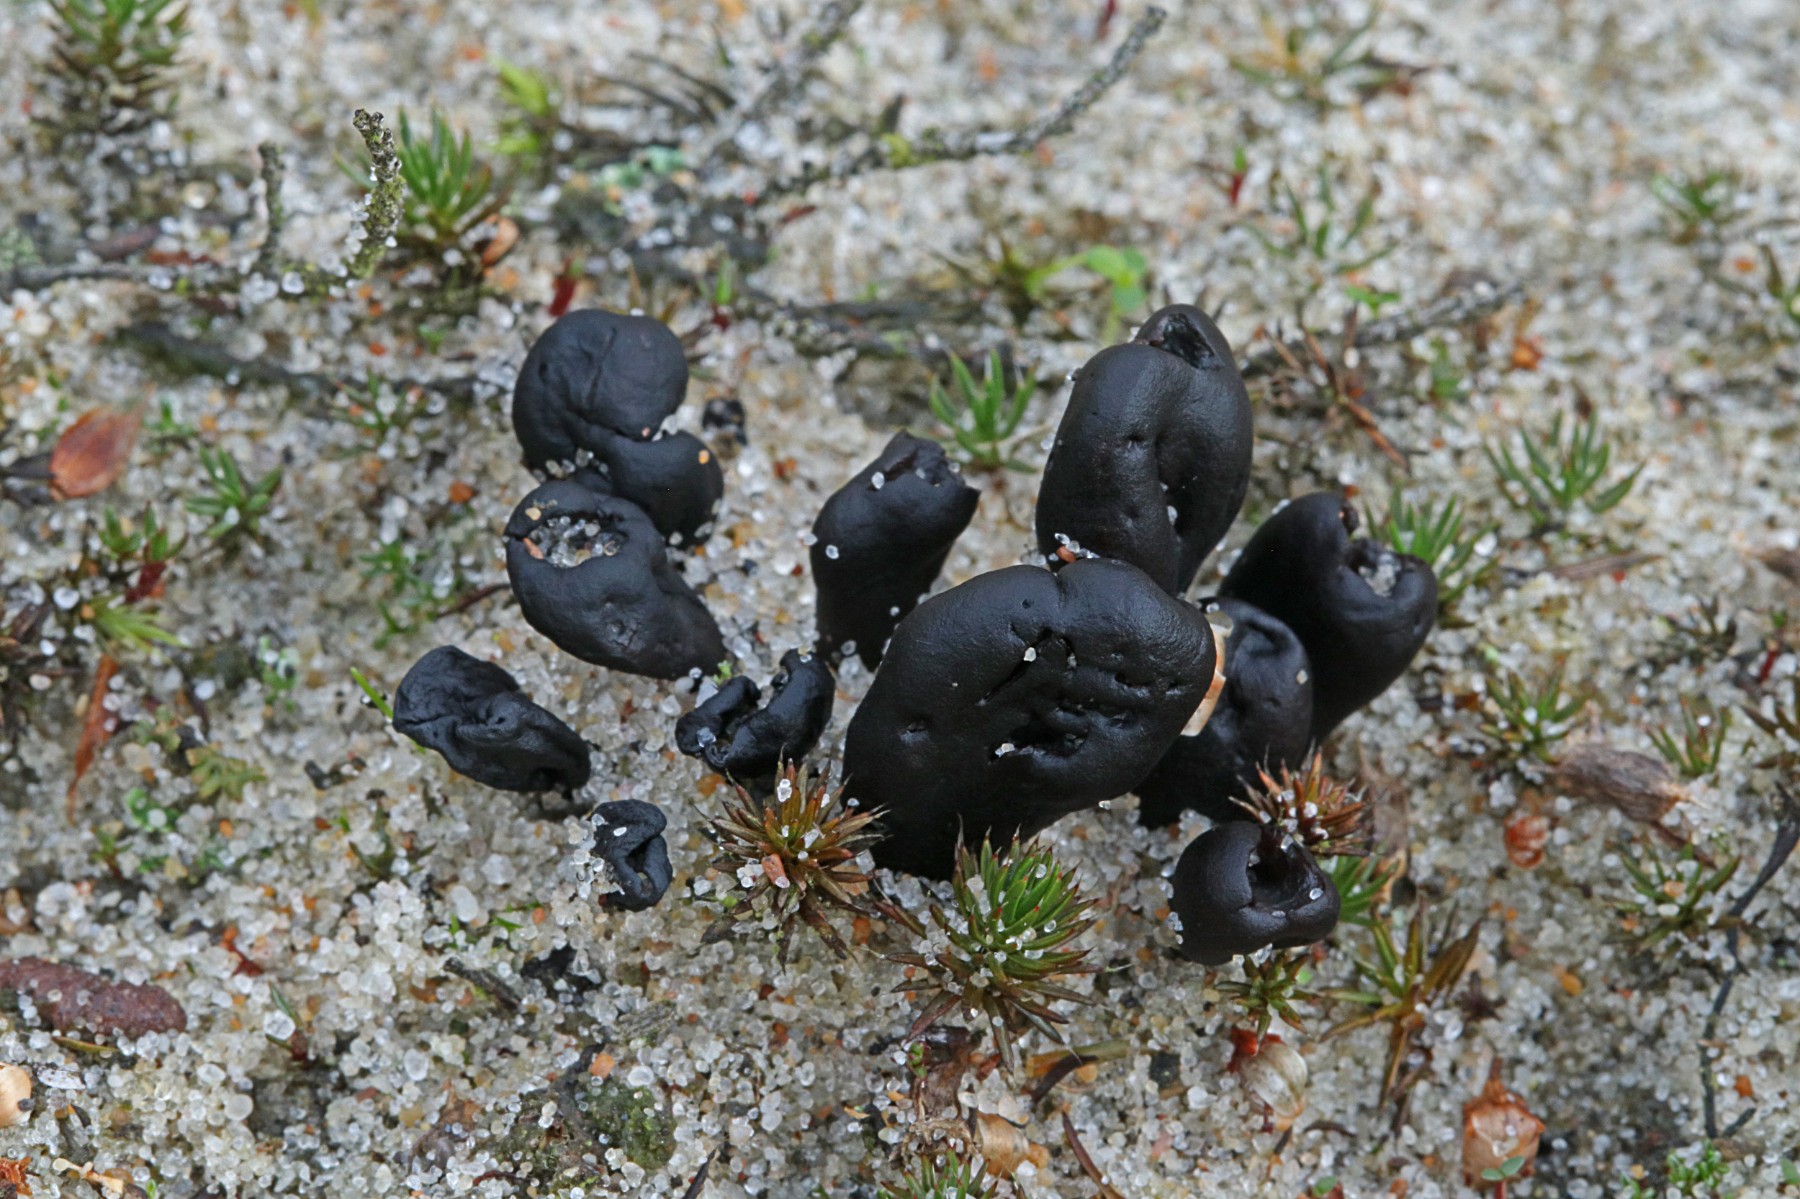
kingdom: Fungi
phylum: Ascomycota
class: Geoglossomycetes
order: Geoglossales
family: Geoglossaceae
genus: Sabuloglossum
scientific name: Sabuloglossum arenarium
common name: klit-jordtunge
